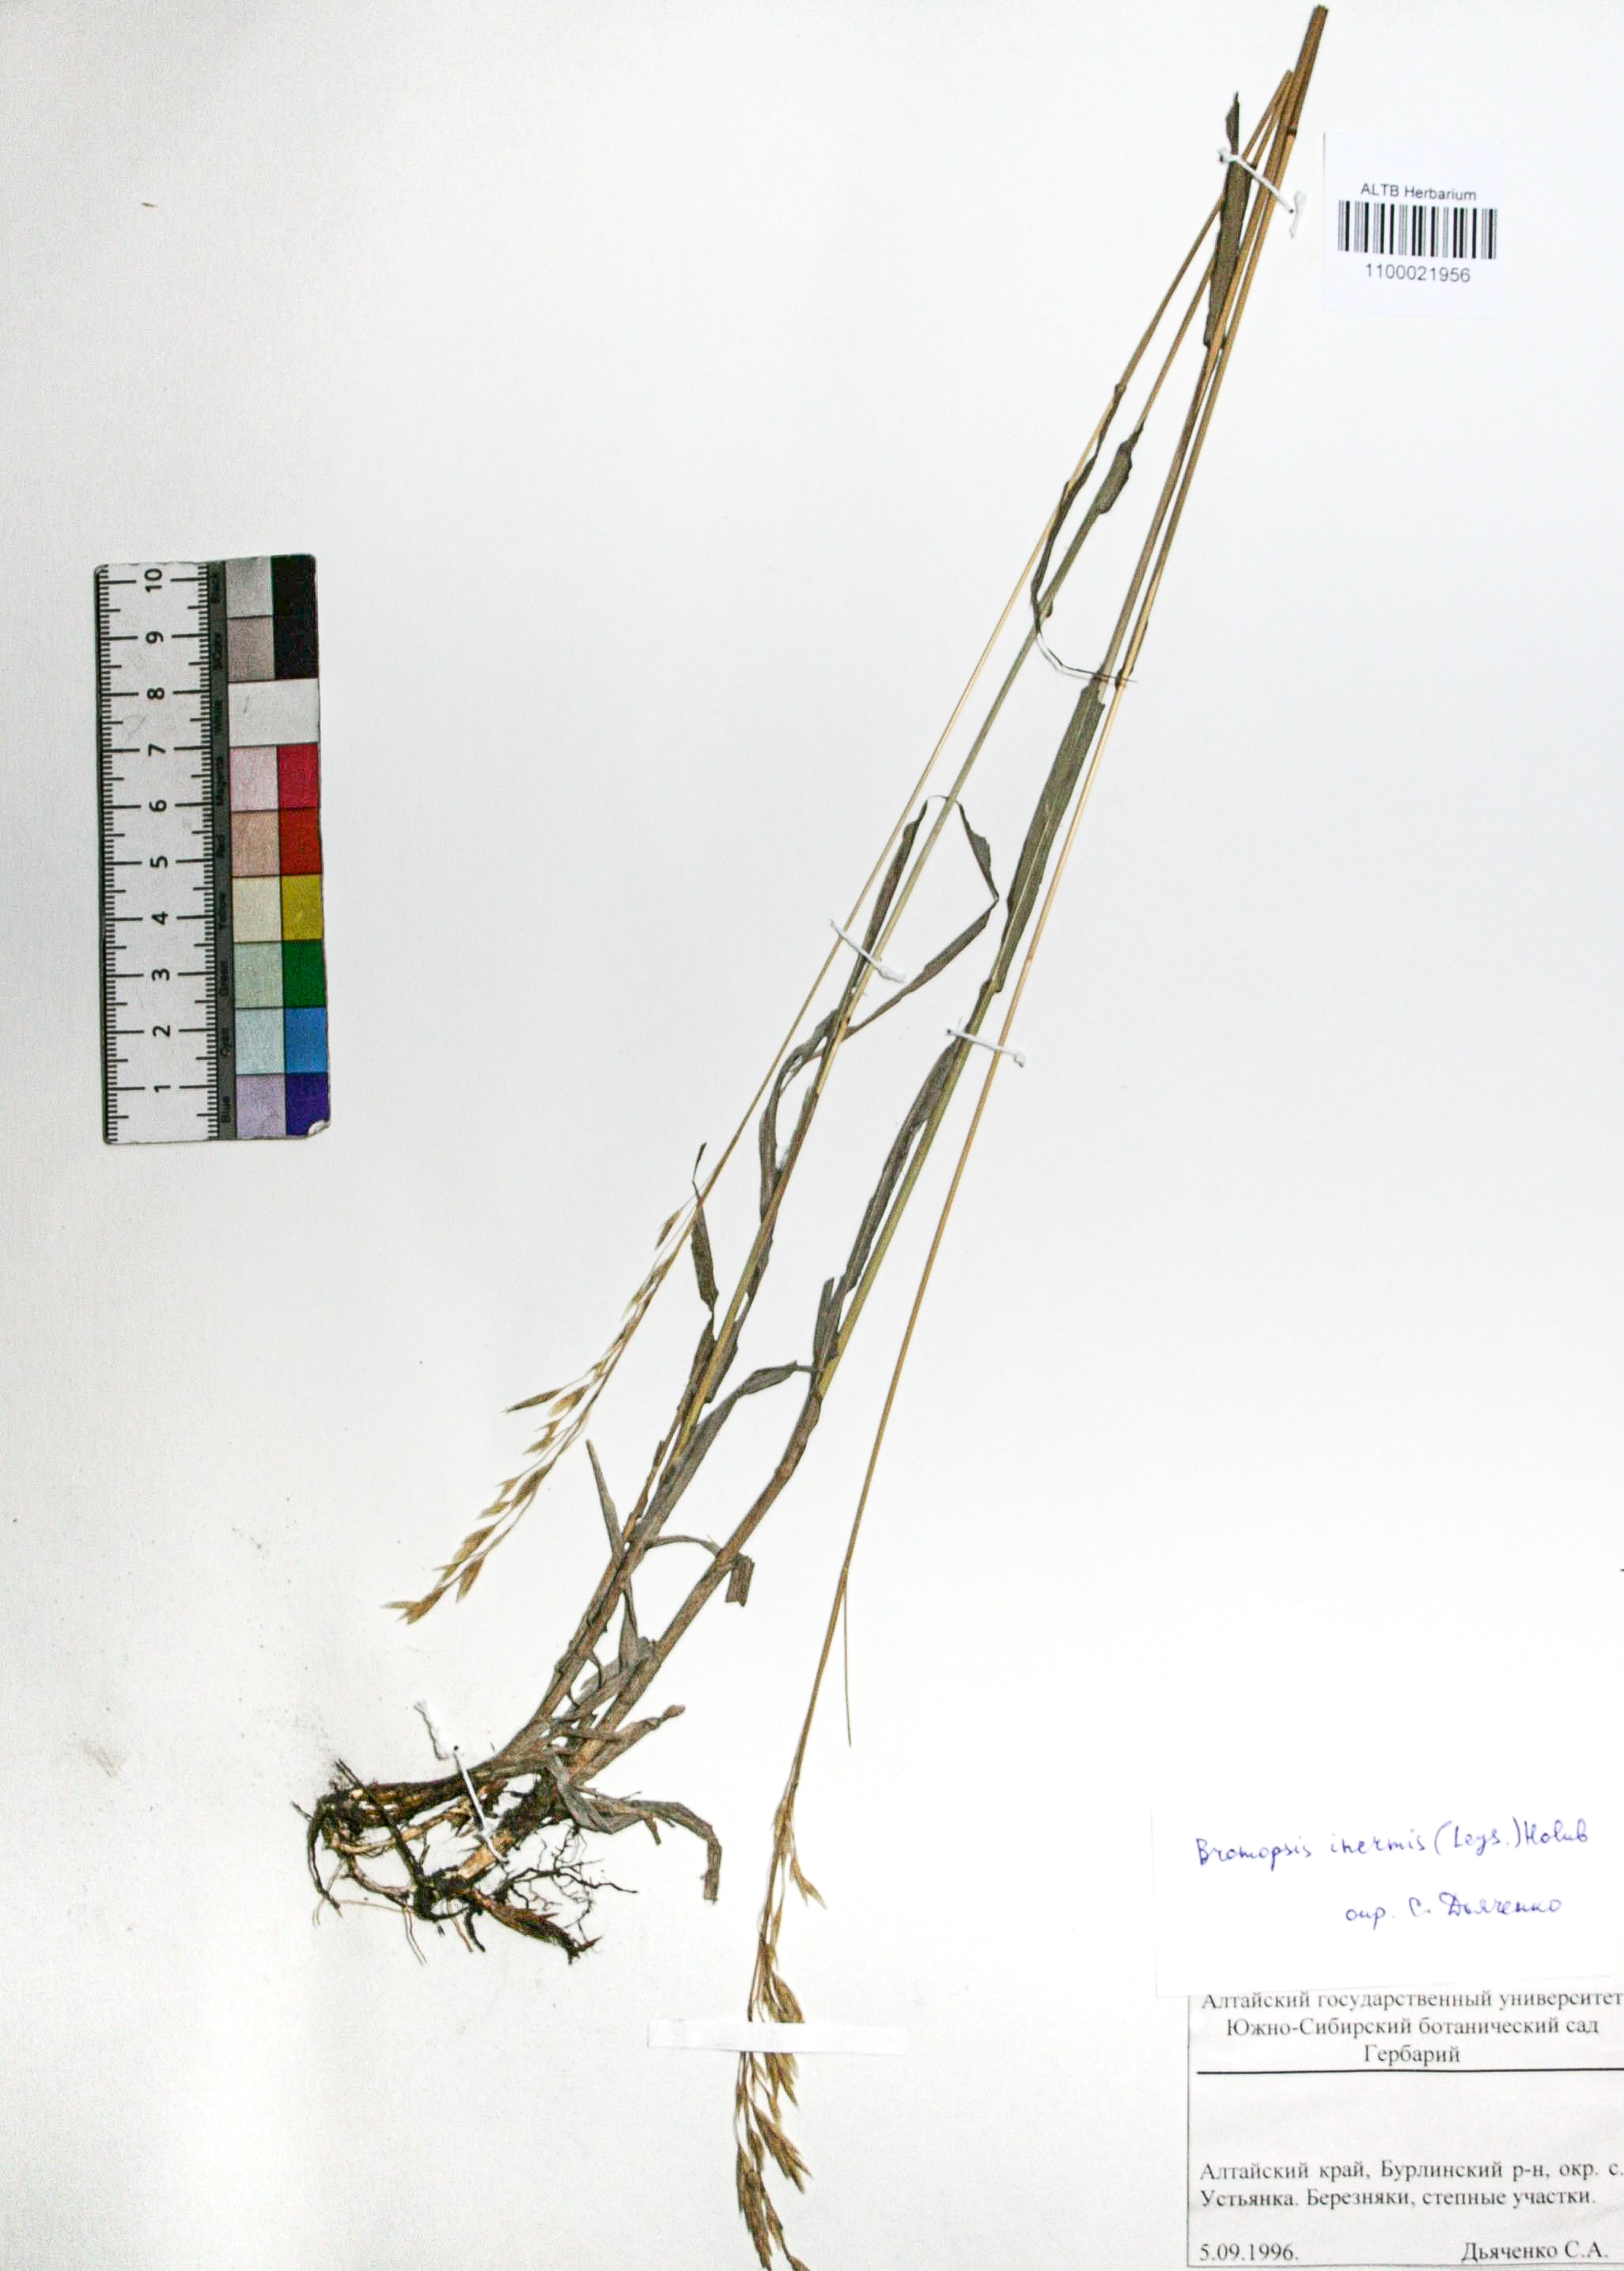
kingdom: Plantae
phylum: Tracheophyta
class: Liliopsida
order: Poales
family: Poaceae
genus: Bromus
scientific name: Bromus inermis
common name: Smooth brome
